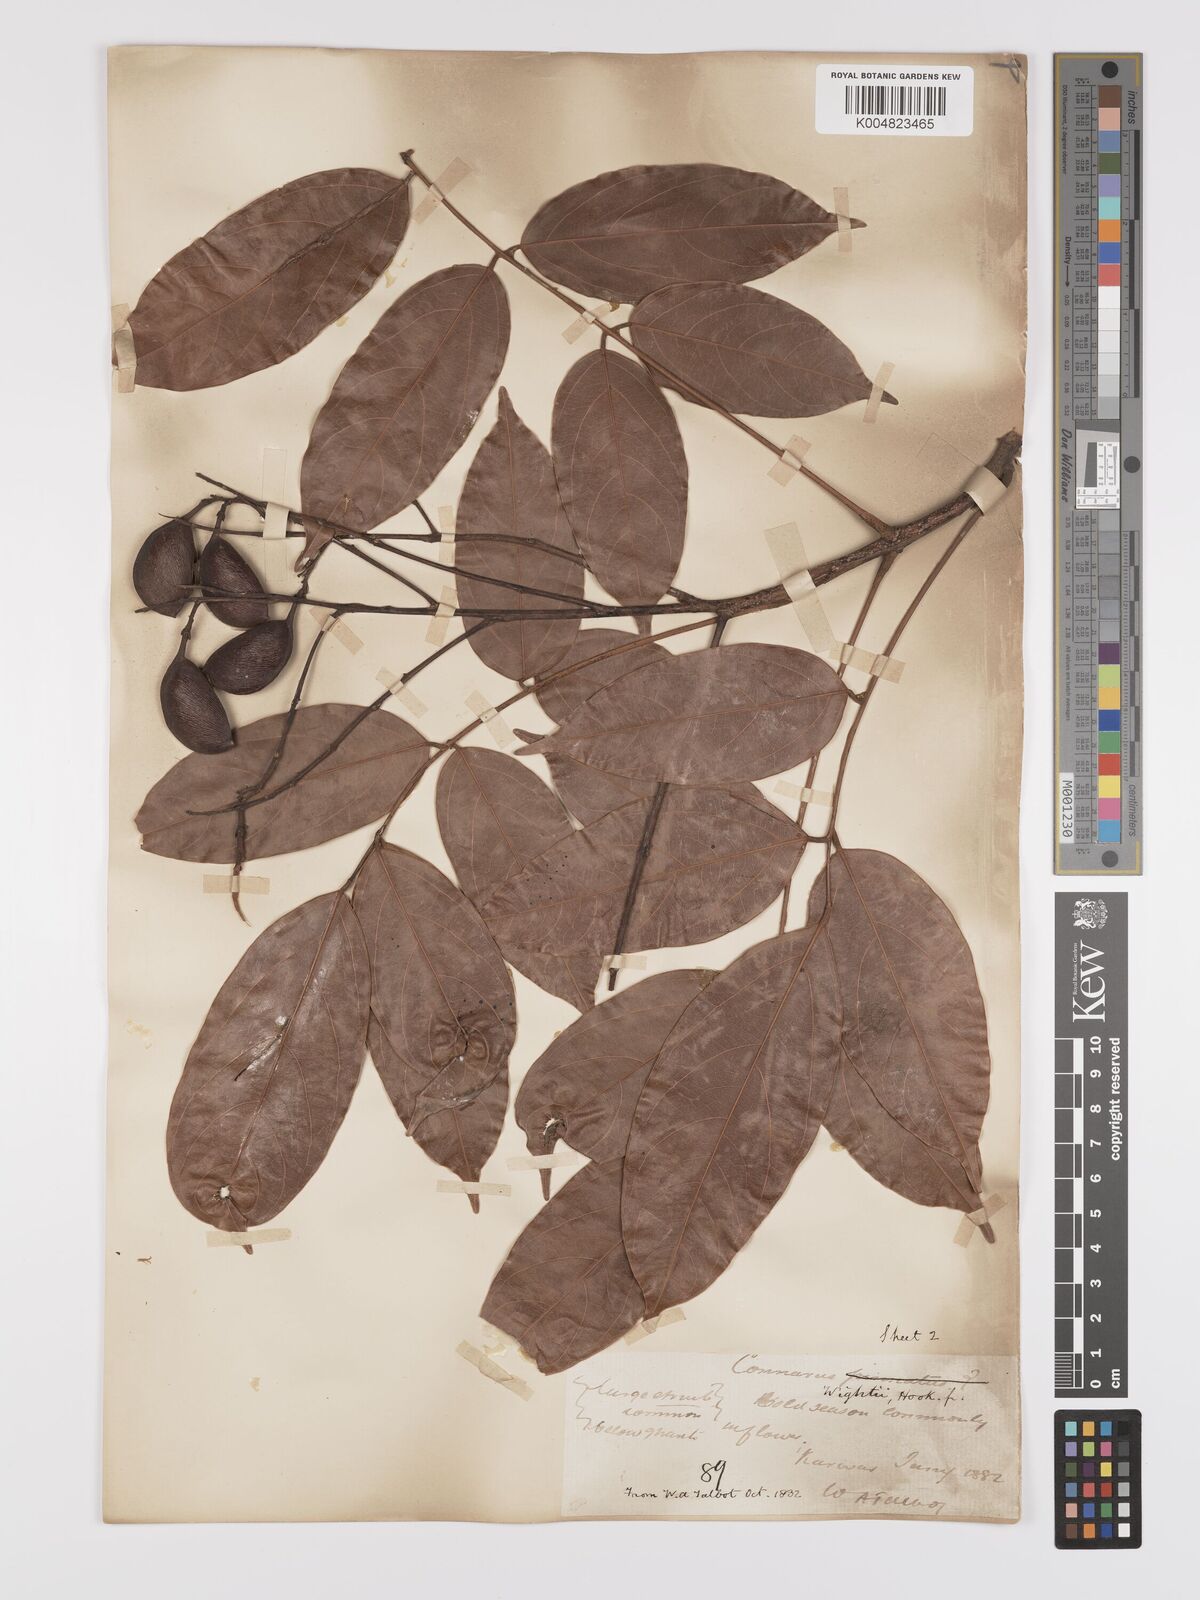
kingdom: Plantae
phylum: Tracheophyta
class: Magnoliopsida
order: Oxalidales
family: Connaraceae
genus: Connarus
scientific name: Connarus wightii
